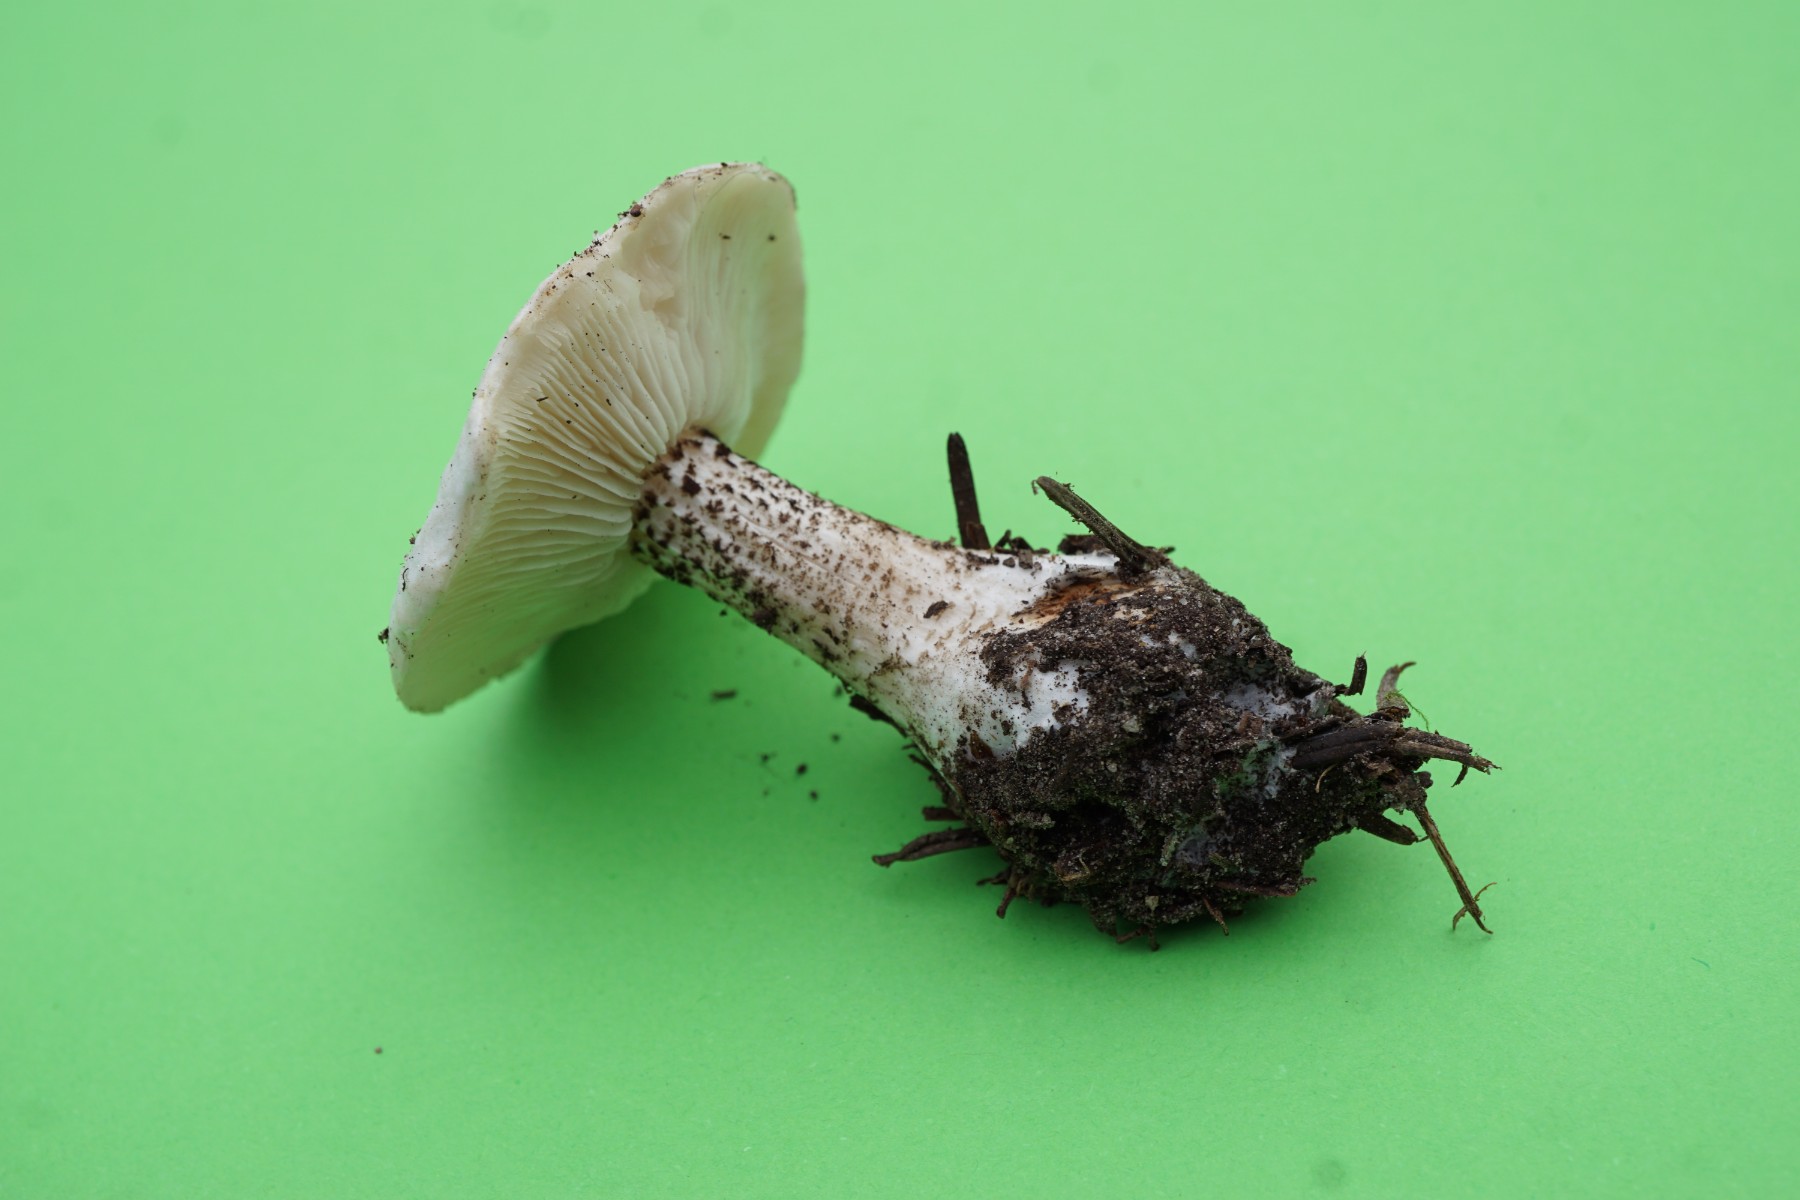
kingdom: Fungi
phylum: Basidiomycota
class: Agaricomycetes
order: Agaricales
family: Tricholomataceae
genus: Melanoleuca
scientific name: Melanoleuca verrucipes
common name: rufodet munkehat
